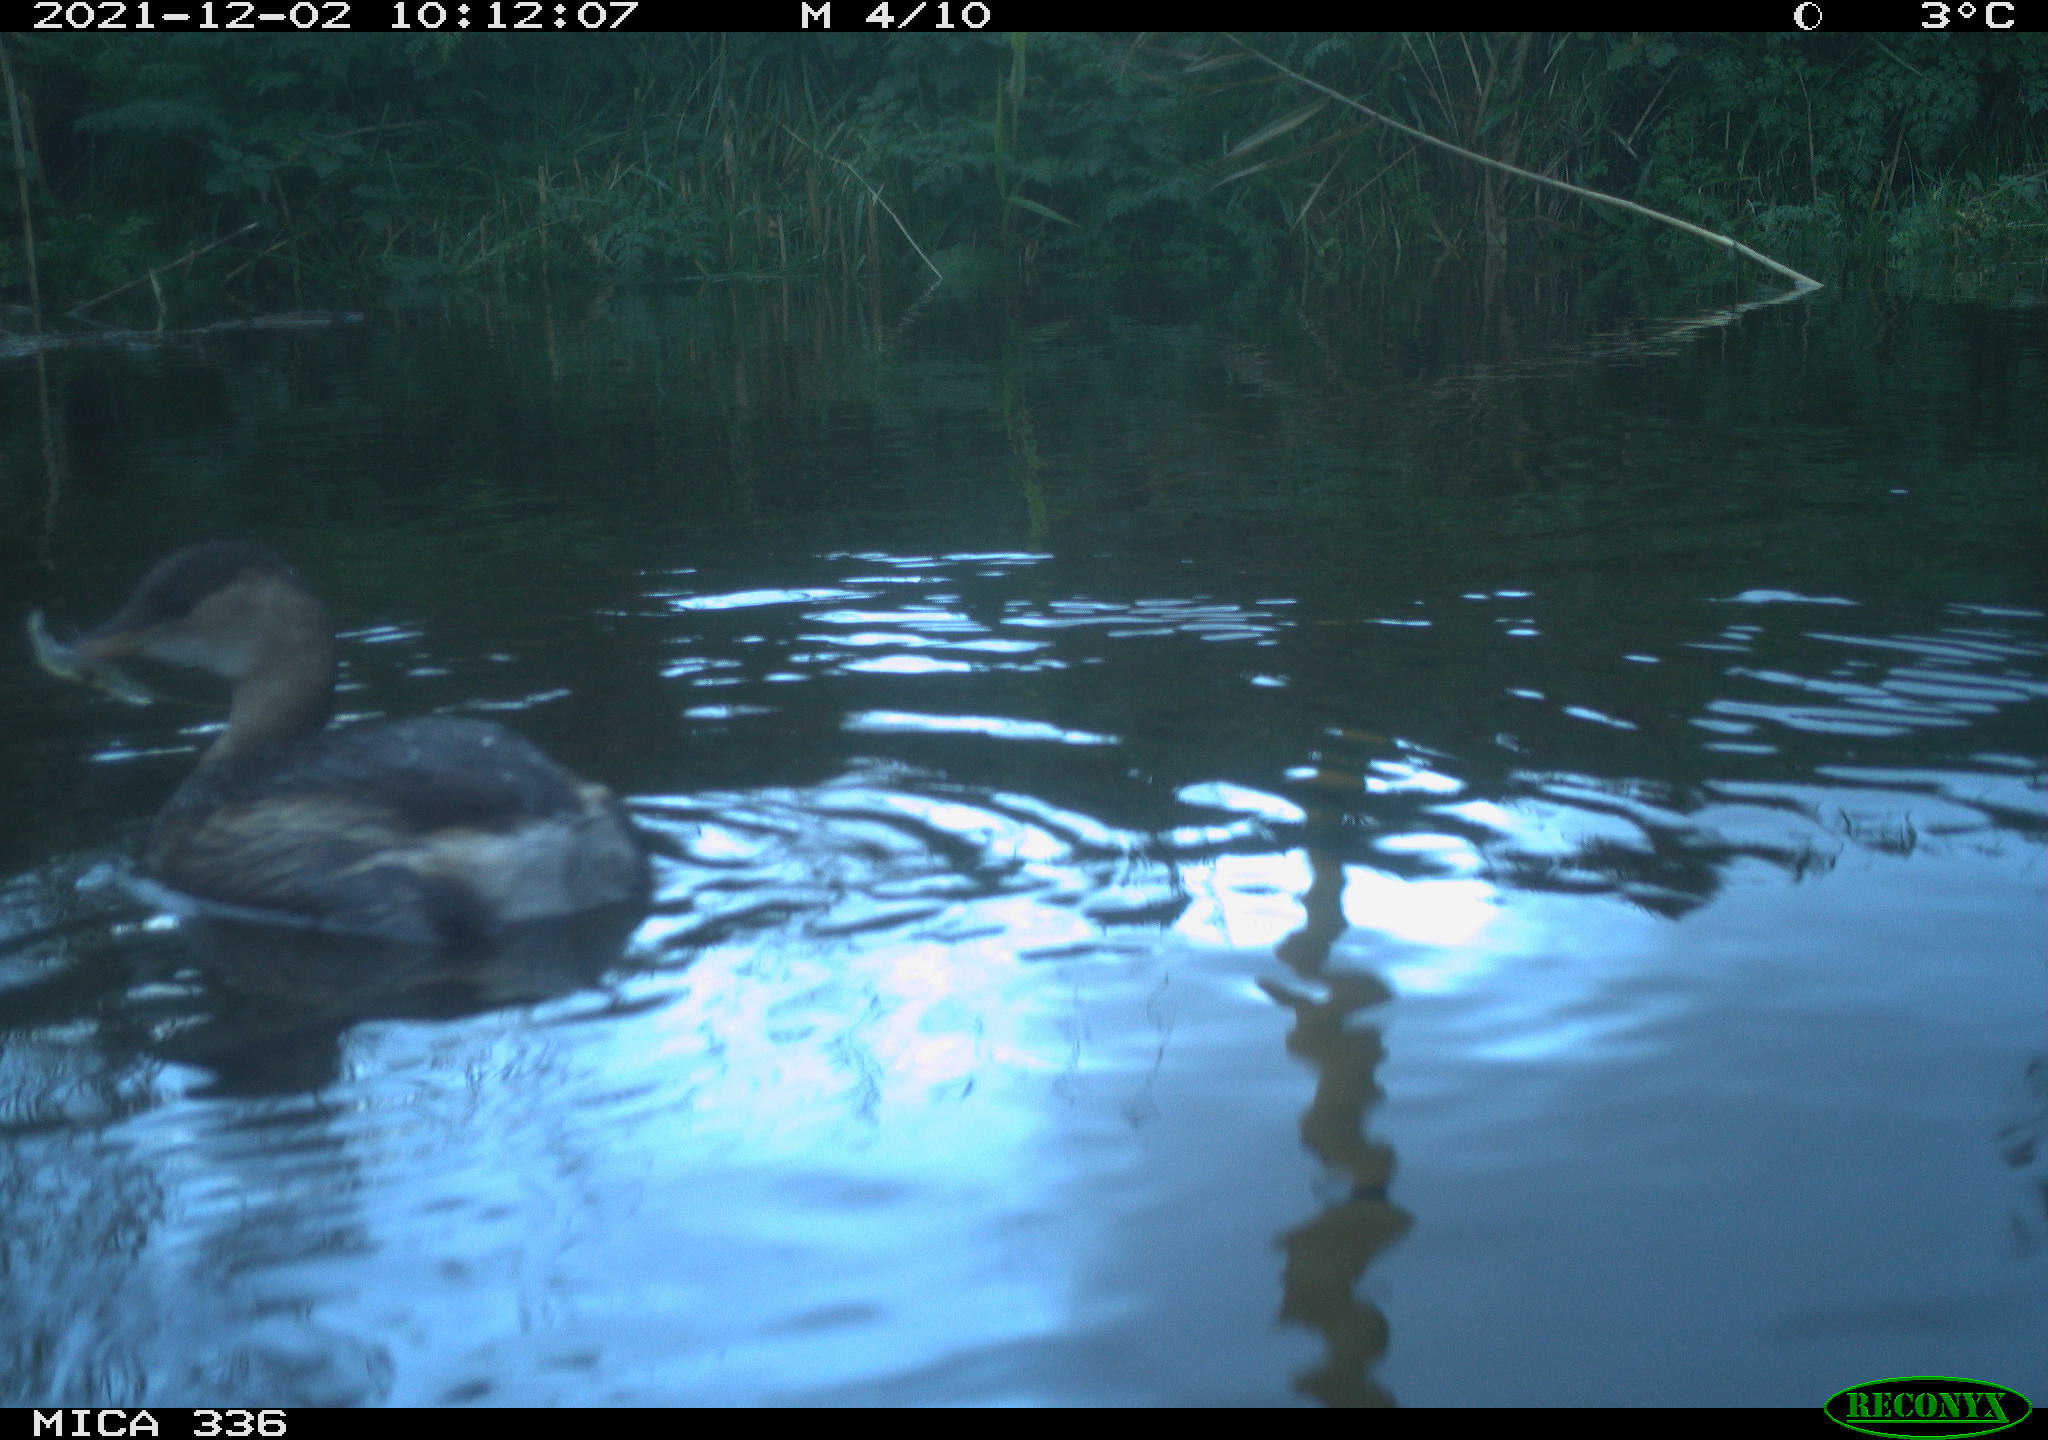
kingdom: Animalia
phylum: Chordata
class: Aves
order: Podicipediformes
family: Podicipedidae
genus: Tachybaptus
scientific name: Tachybaptus ruficollis
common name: Little grebe
